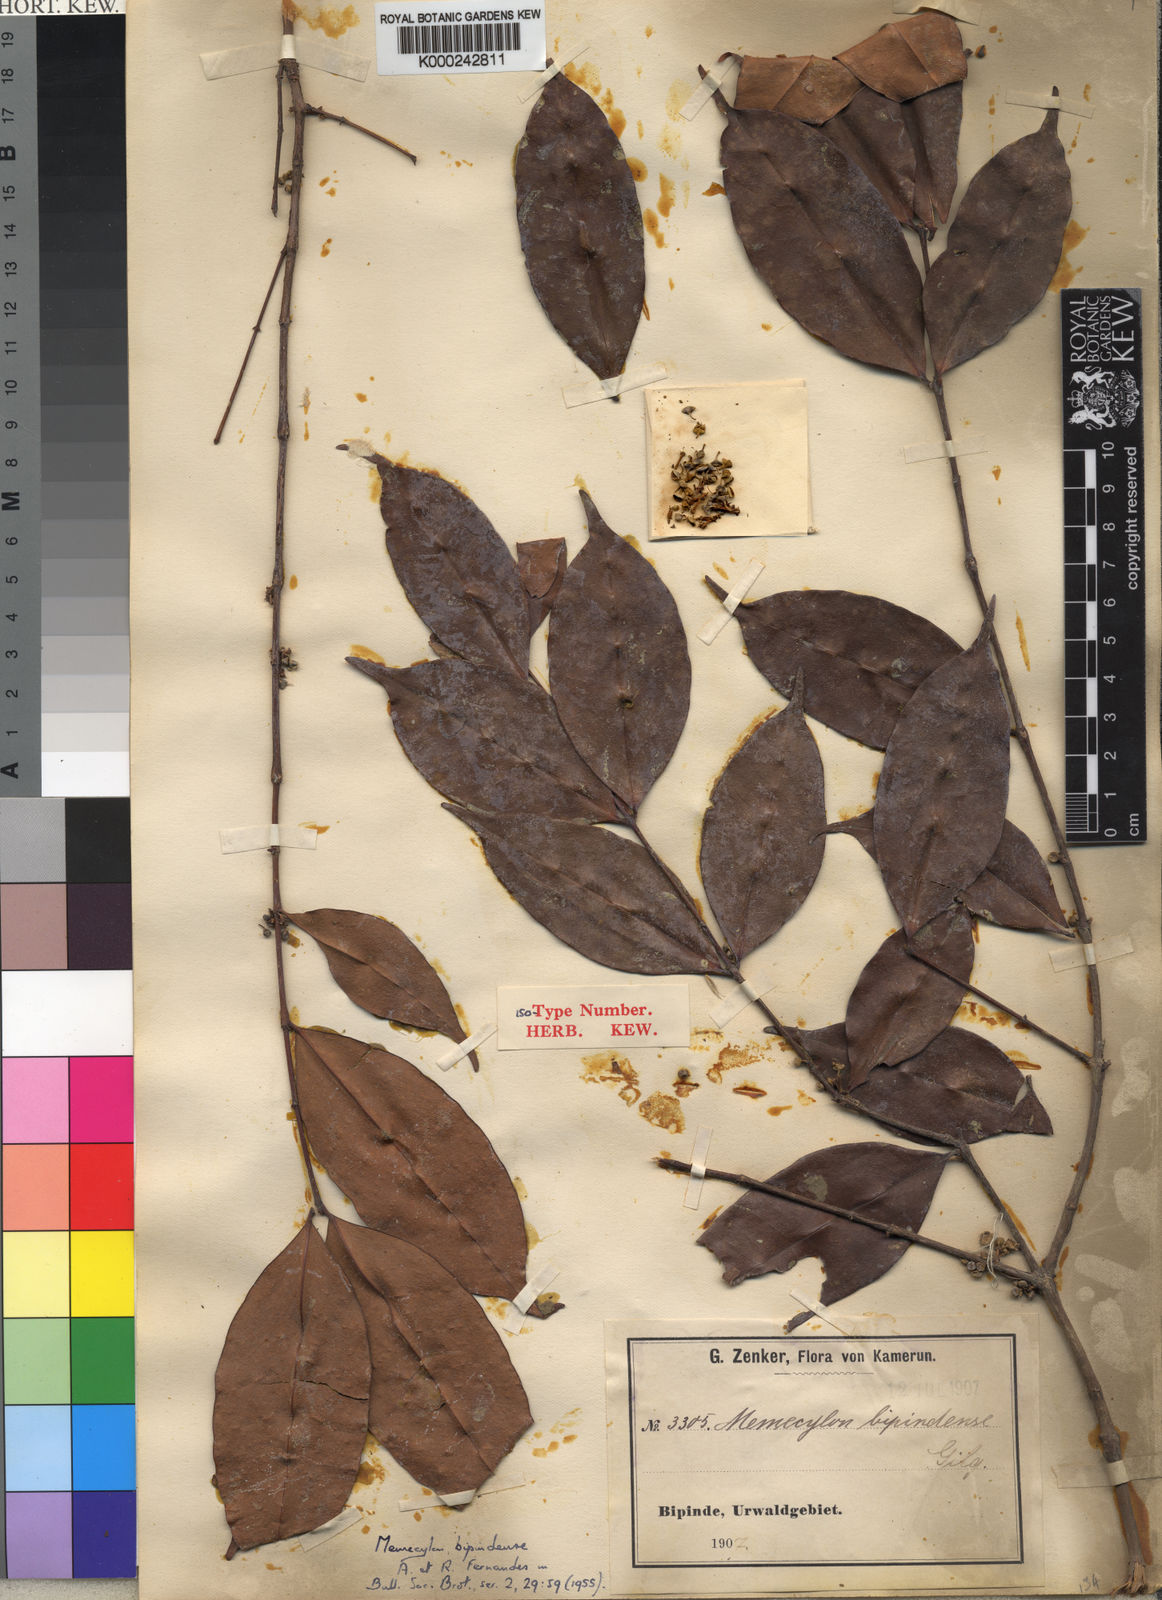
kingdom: Plantae
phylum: Tracheophyta
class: Magnoliopsida
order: Myrtales
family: Melastomataceae
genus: Memecylon
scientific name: Memecylon candidum
